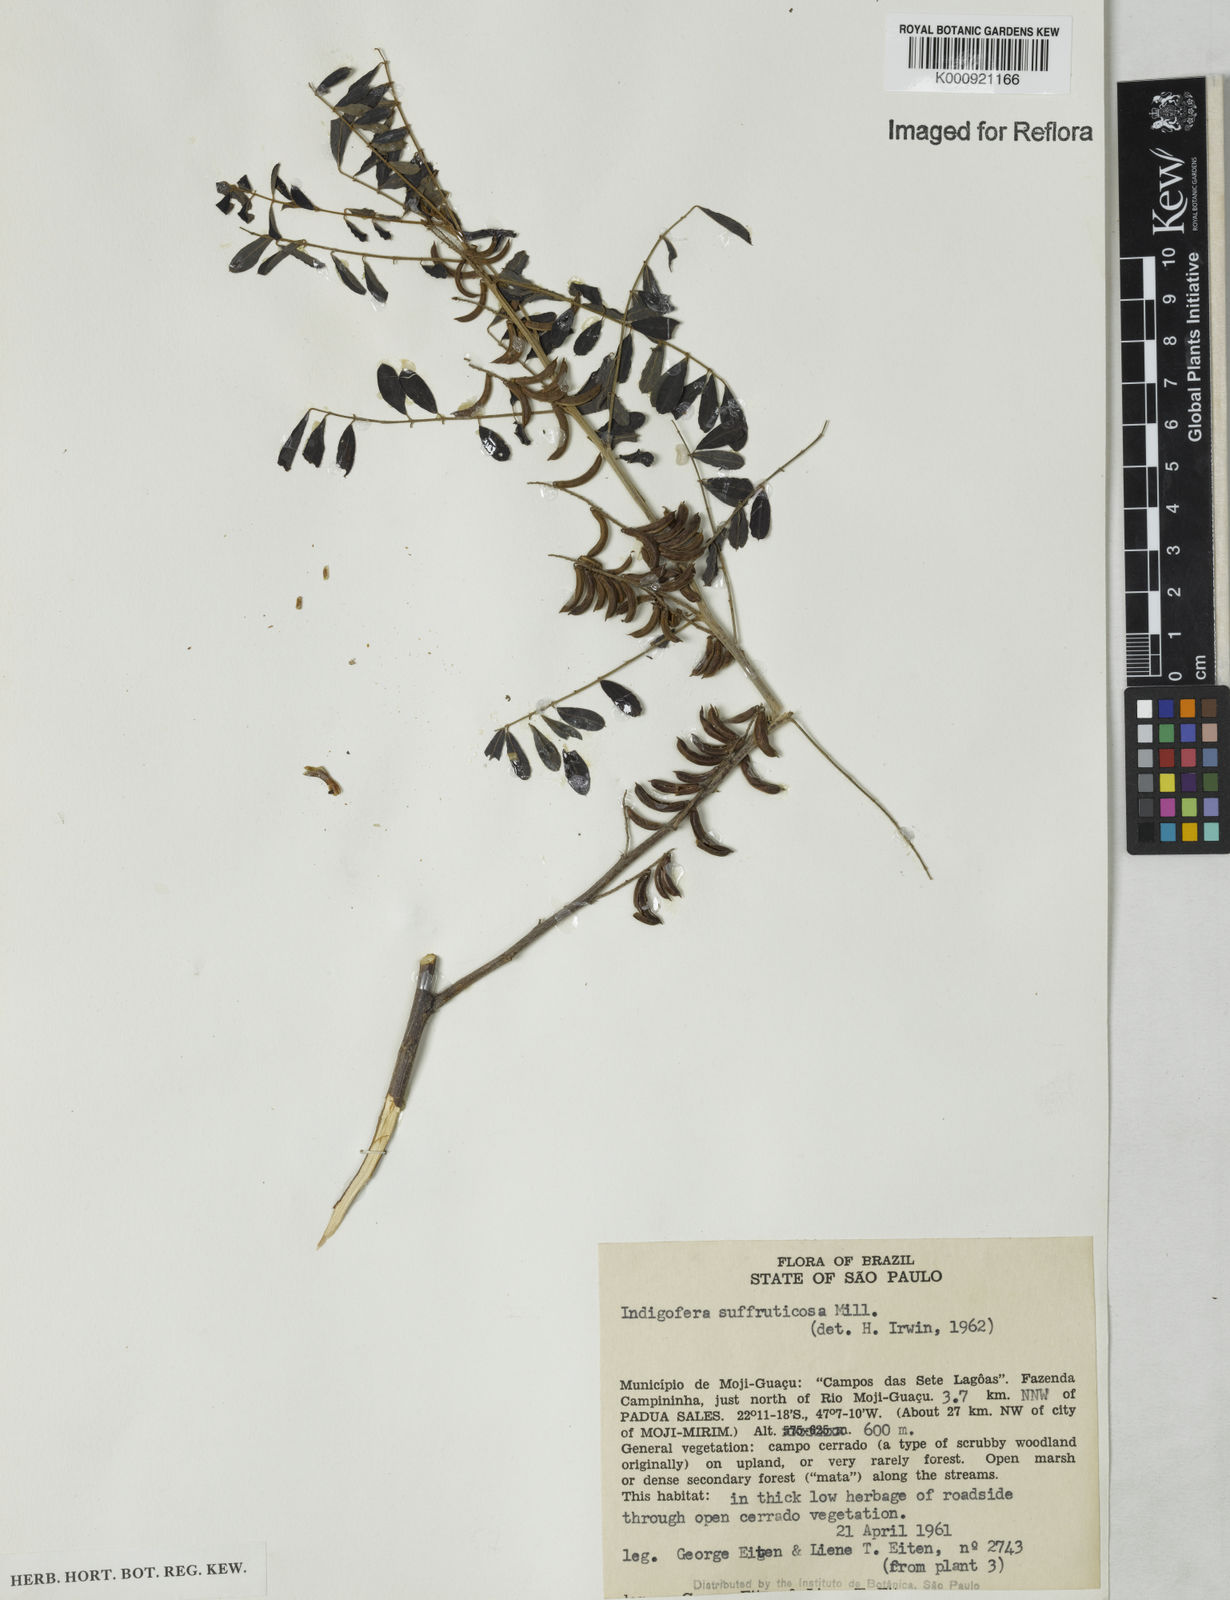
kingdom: Plantae
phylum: Tracheophyta
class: Magnoliopsida
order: Fabales
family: Fabaceae
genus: Indigofera
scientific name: Indigofera suffruticosa
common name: Anil de pasto
